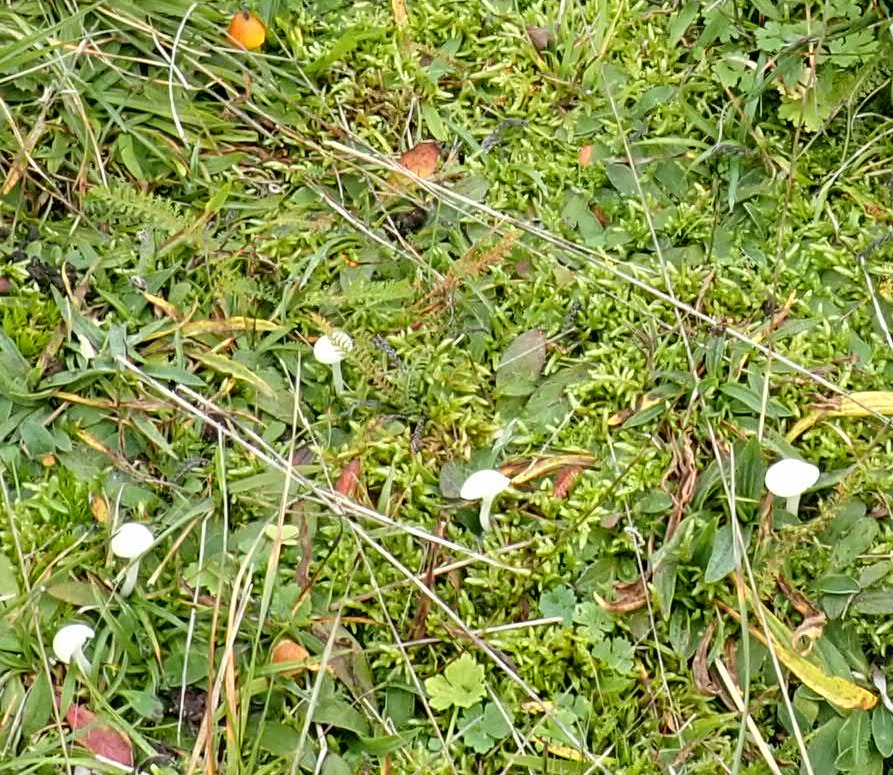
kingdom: Fungi
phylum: Basidiomycota
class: Agaricomycetes
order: Agaricales
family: Hygrophoraceae
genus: Cuphophyllus
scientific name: Cuphophyllus virgineus
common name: snehvid vokshat
